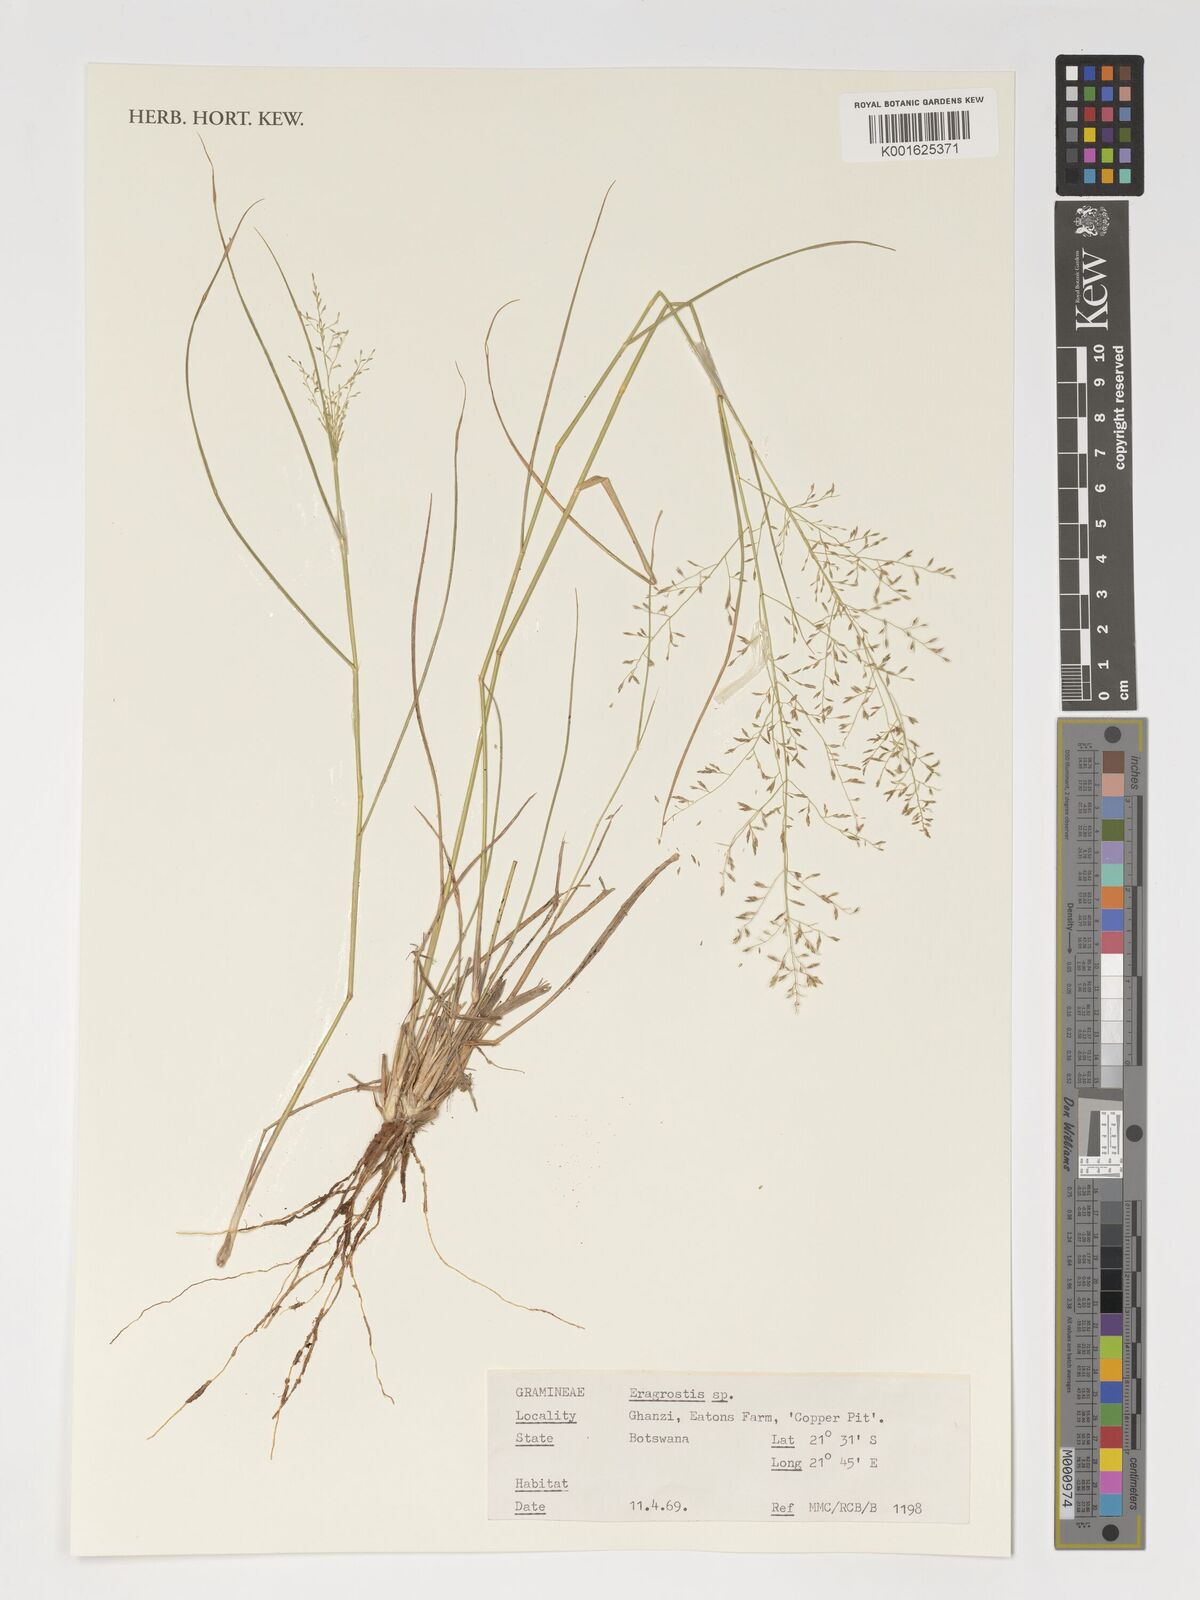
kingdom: Plantae
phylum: Tracheophyta
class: Liliopsida
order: Poales
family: Poaceae
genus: Eragrostis
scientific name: Eragrostis
